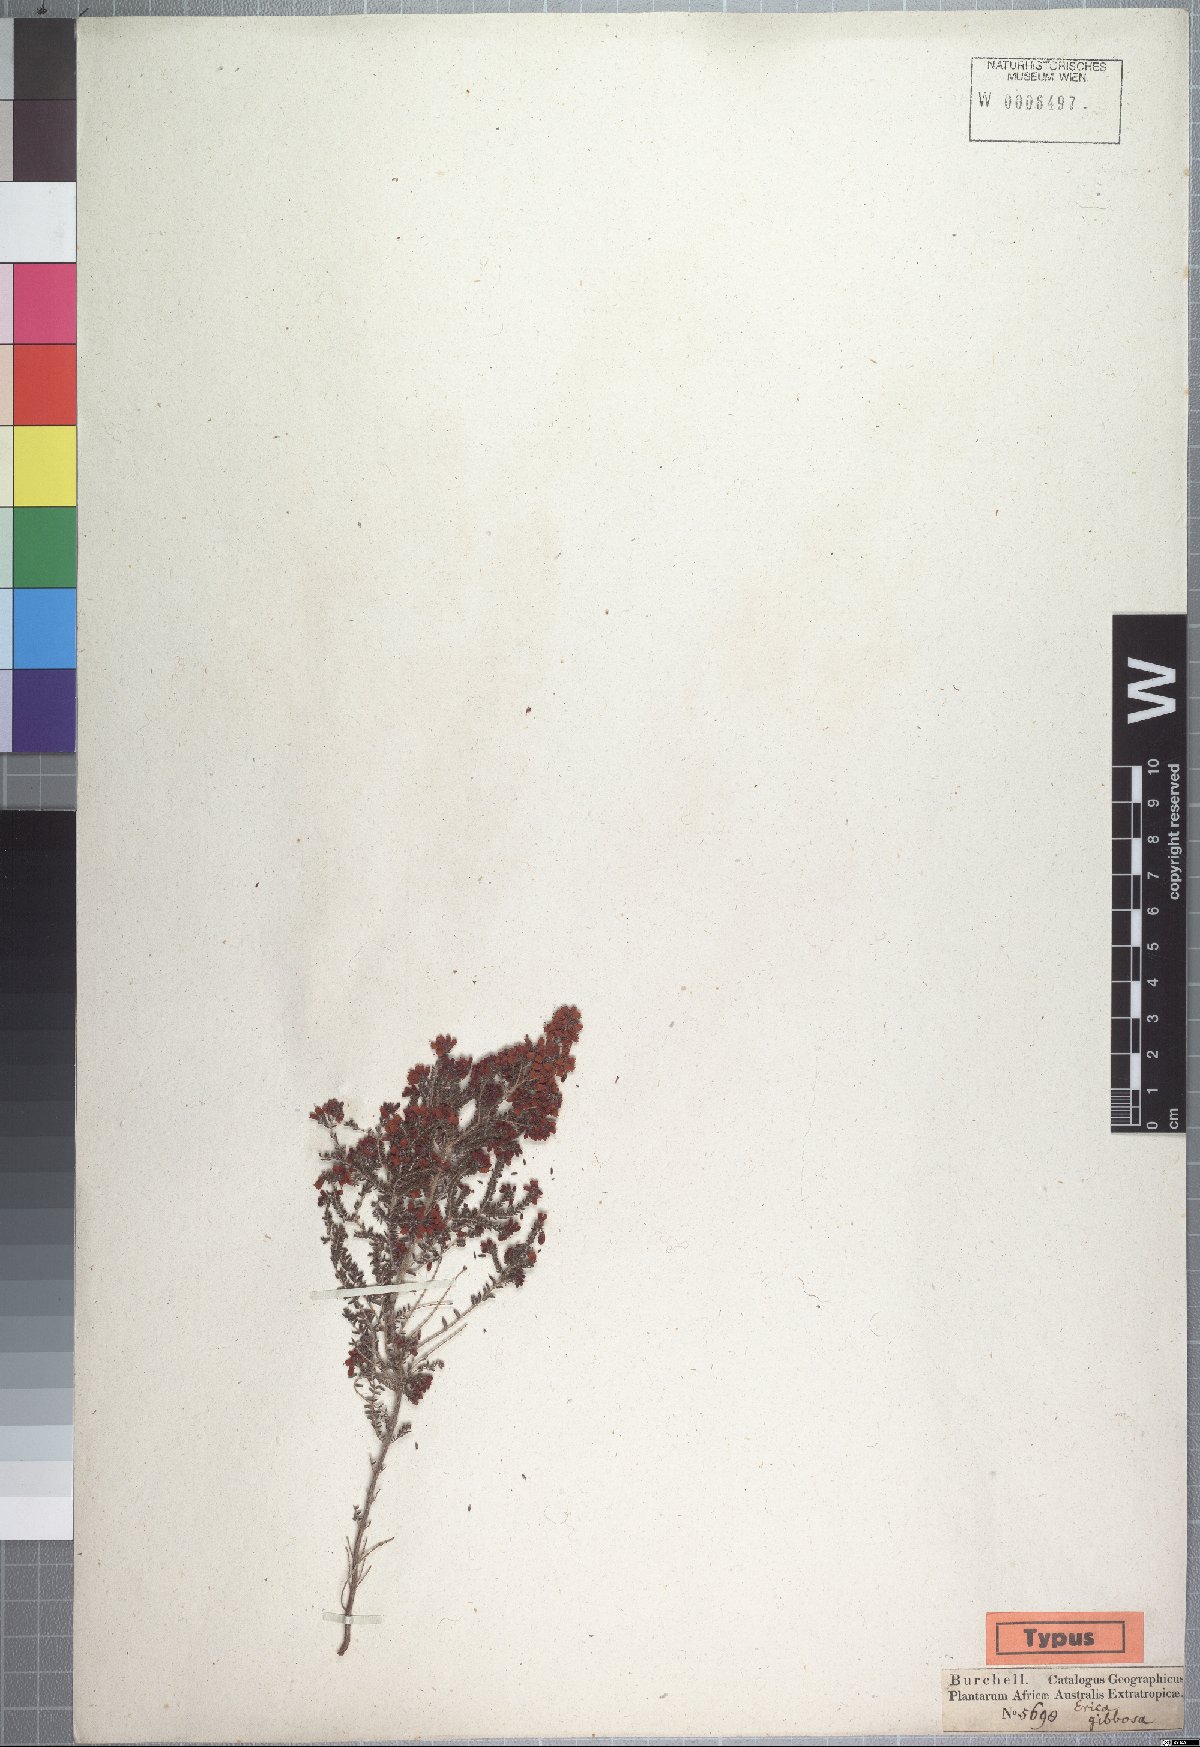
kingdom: Plantae
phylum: Tracheophyta
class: Magnoliopsida
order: Ericales
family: Ericaceae
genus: Erica
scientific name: Erica scabriuscula
